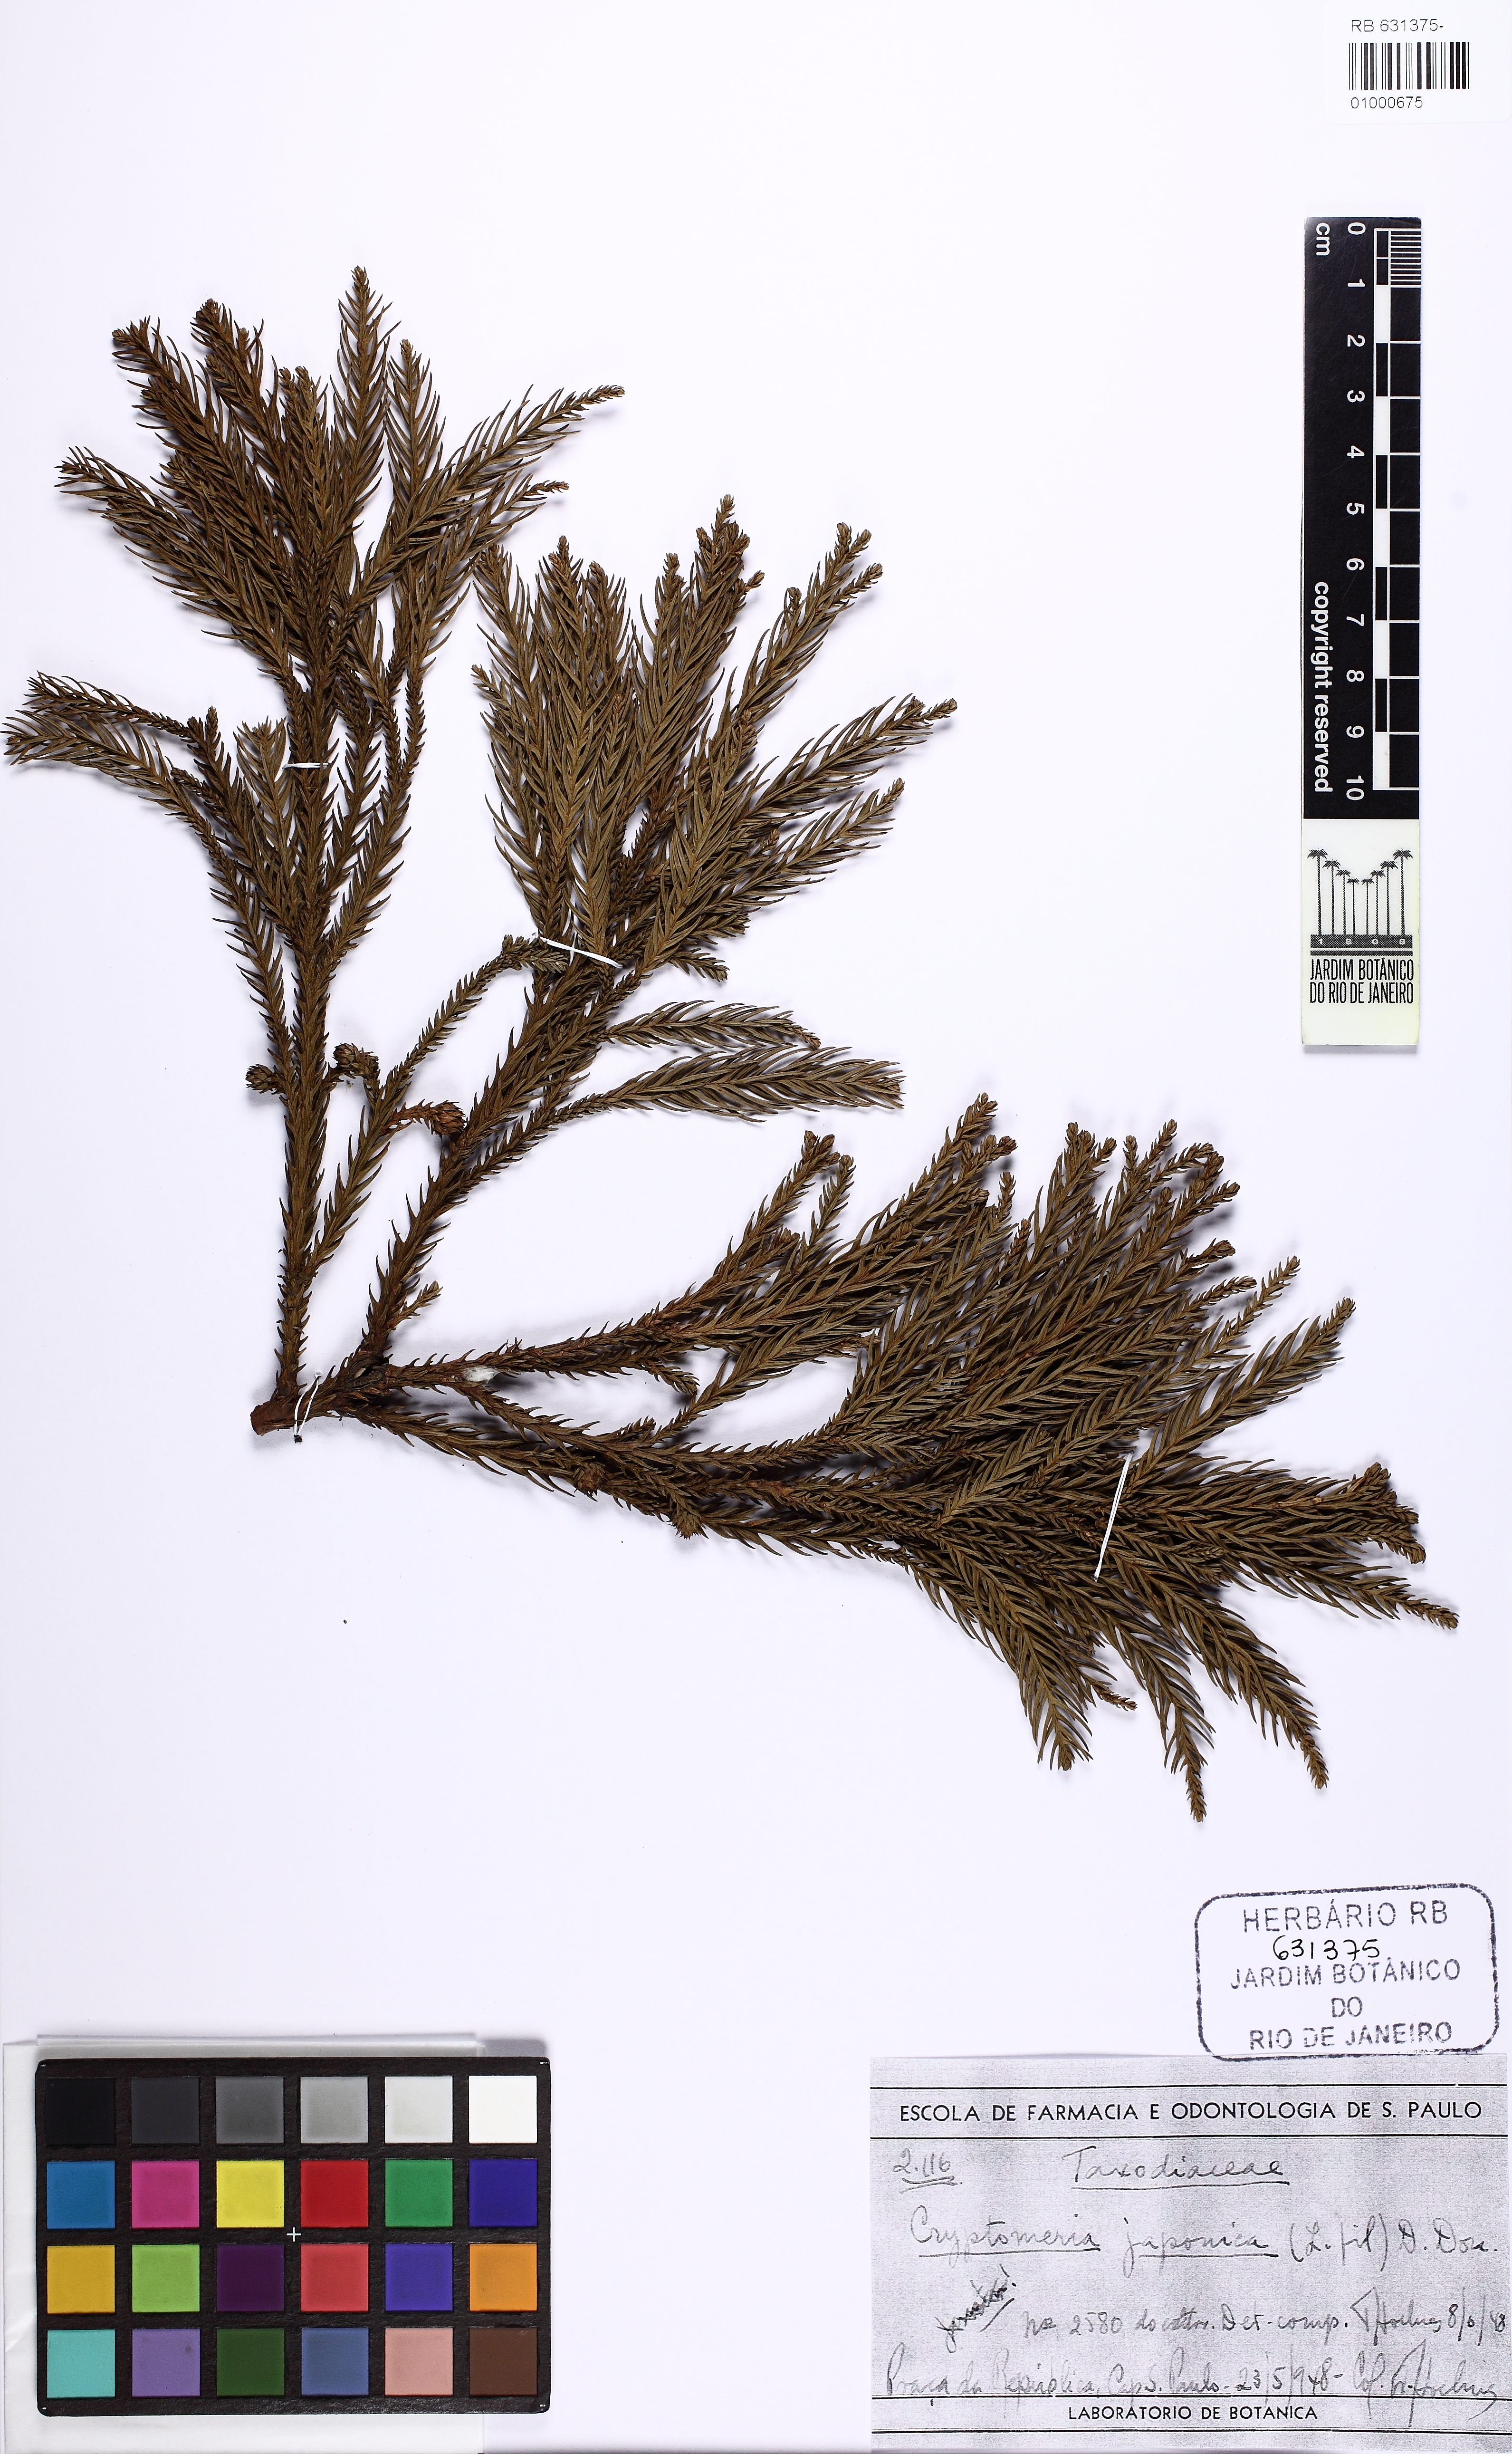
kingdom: Plantae
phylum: Tracheophyta
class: Pinopsida
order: Pinales
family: Cupressaceae
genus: Cryptomeria
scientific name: Cryptomeria japonica
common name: Japanese cedar
